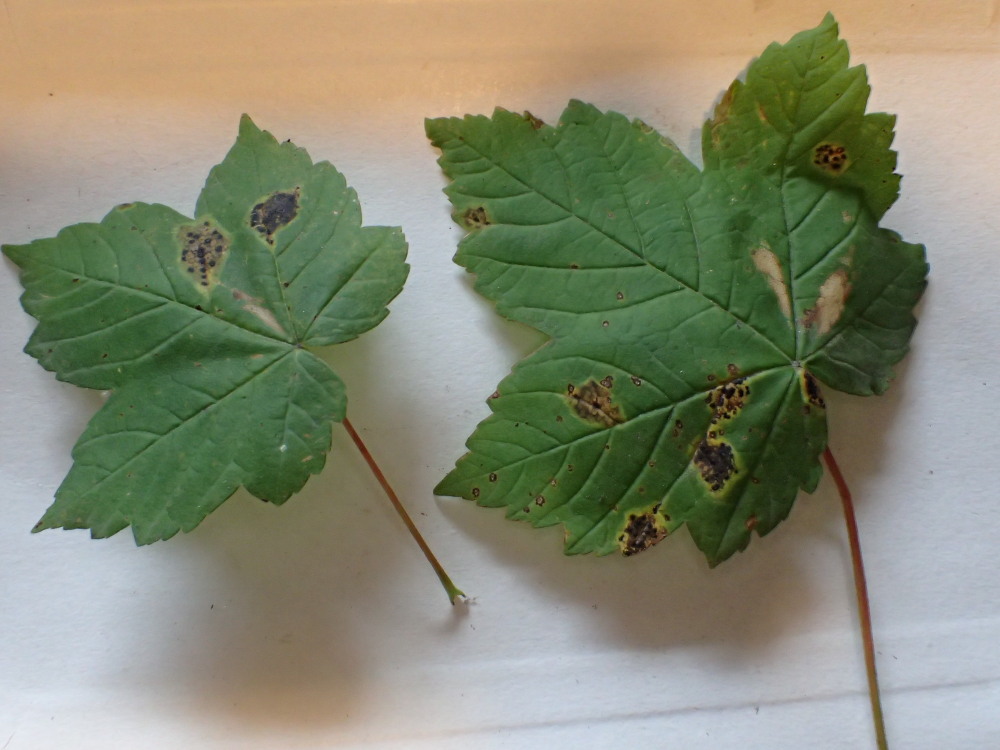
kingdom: Fungi
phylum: Ascomycota
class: Leotiomycetes
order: Rhytismatales
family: Rhytismataceae
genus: Rhytisma
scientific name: Rhytisma acerinum
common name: ahorn-rynkeplet
